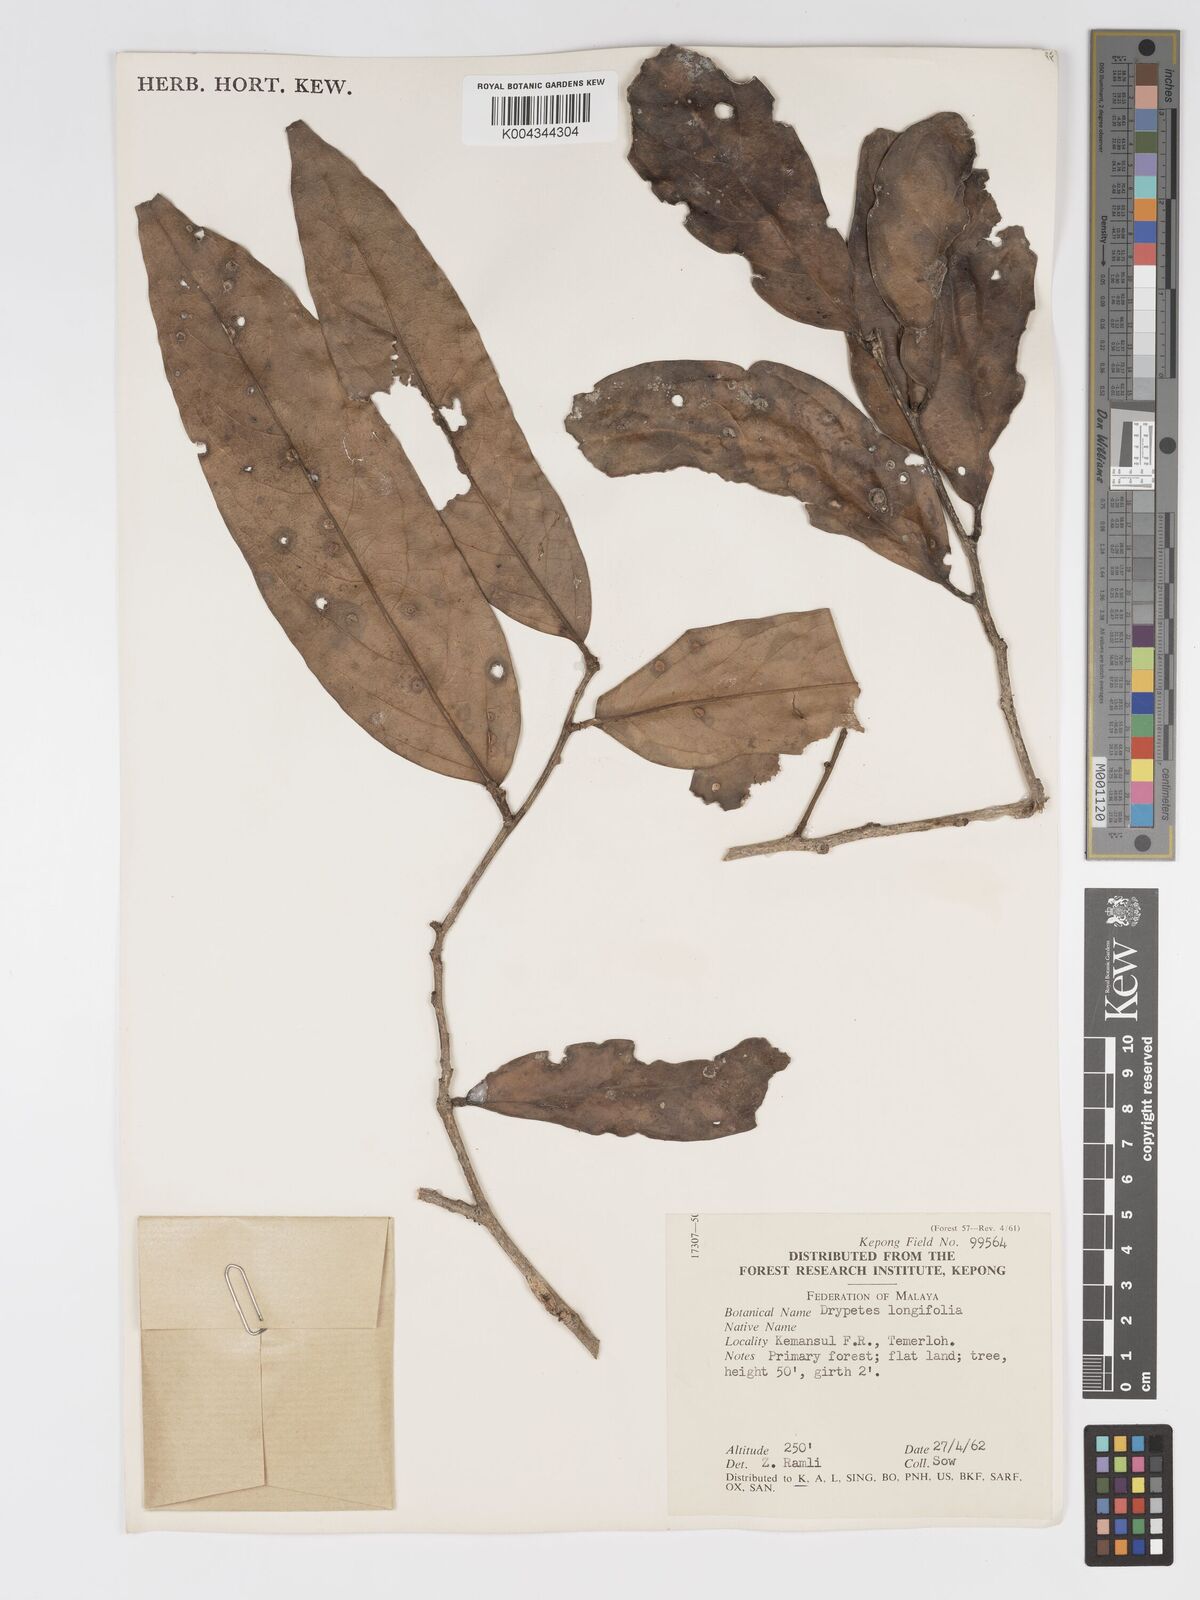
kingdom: Plantae
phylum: Tracheophyta
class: Magnoliopsida
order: Malpighiales
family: Putranjivaceae
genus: Drypetes
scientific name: Drypetes longifolia
